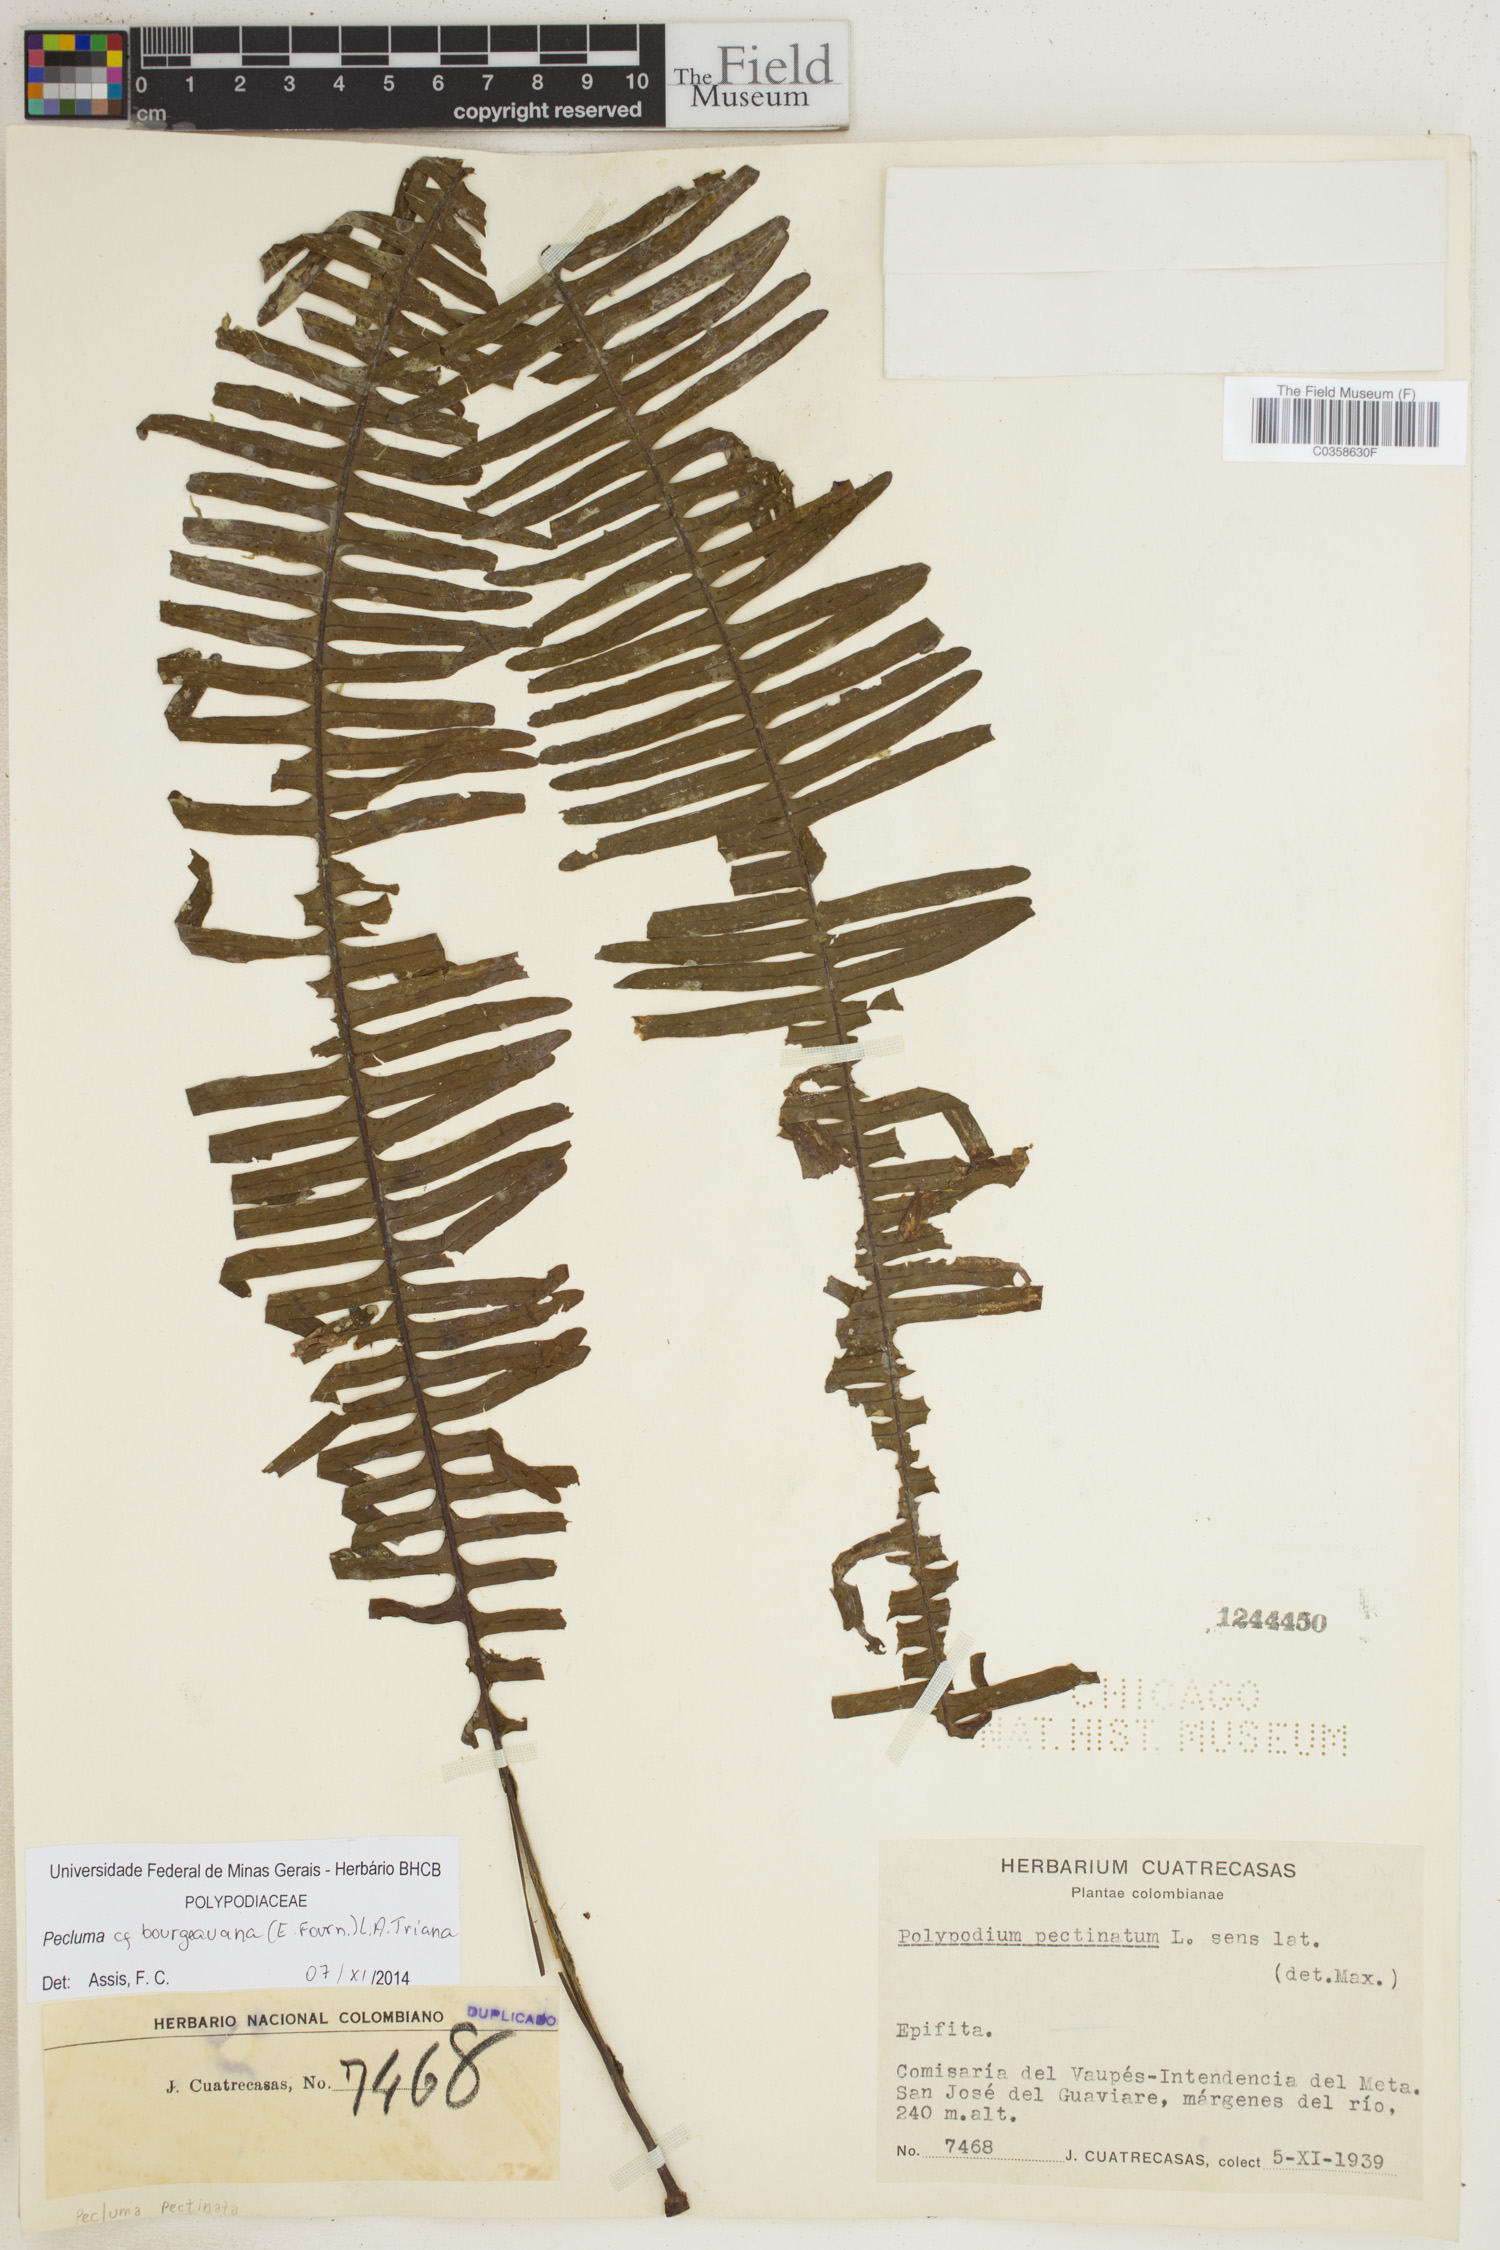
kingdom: Plantae
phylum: Tracheophyta
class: Polypodiopsida
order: Polypodiales
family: Polypodiaceae
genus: Pecluma
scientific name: Pecluma bourgeauana
